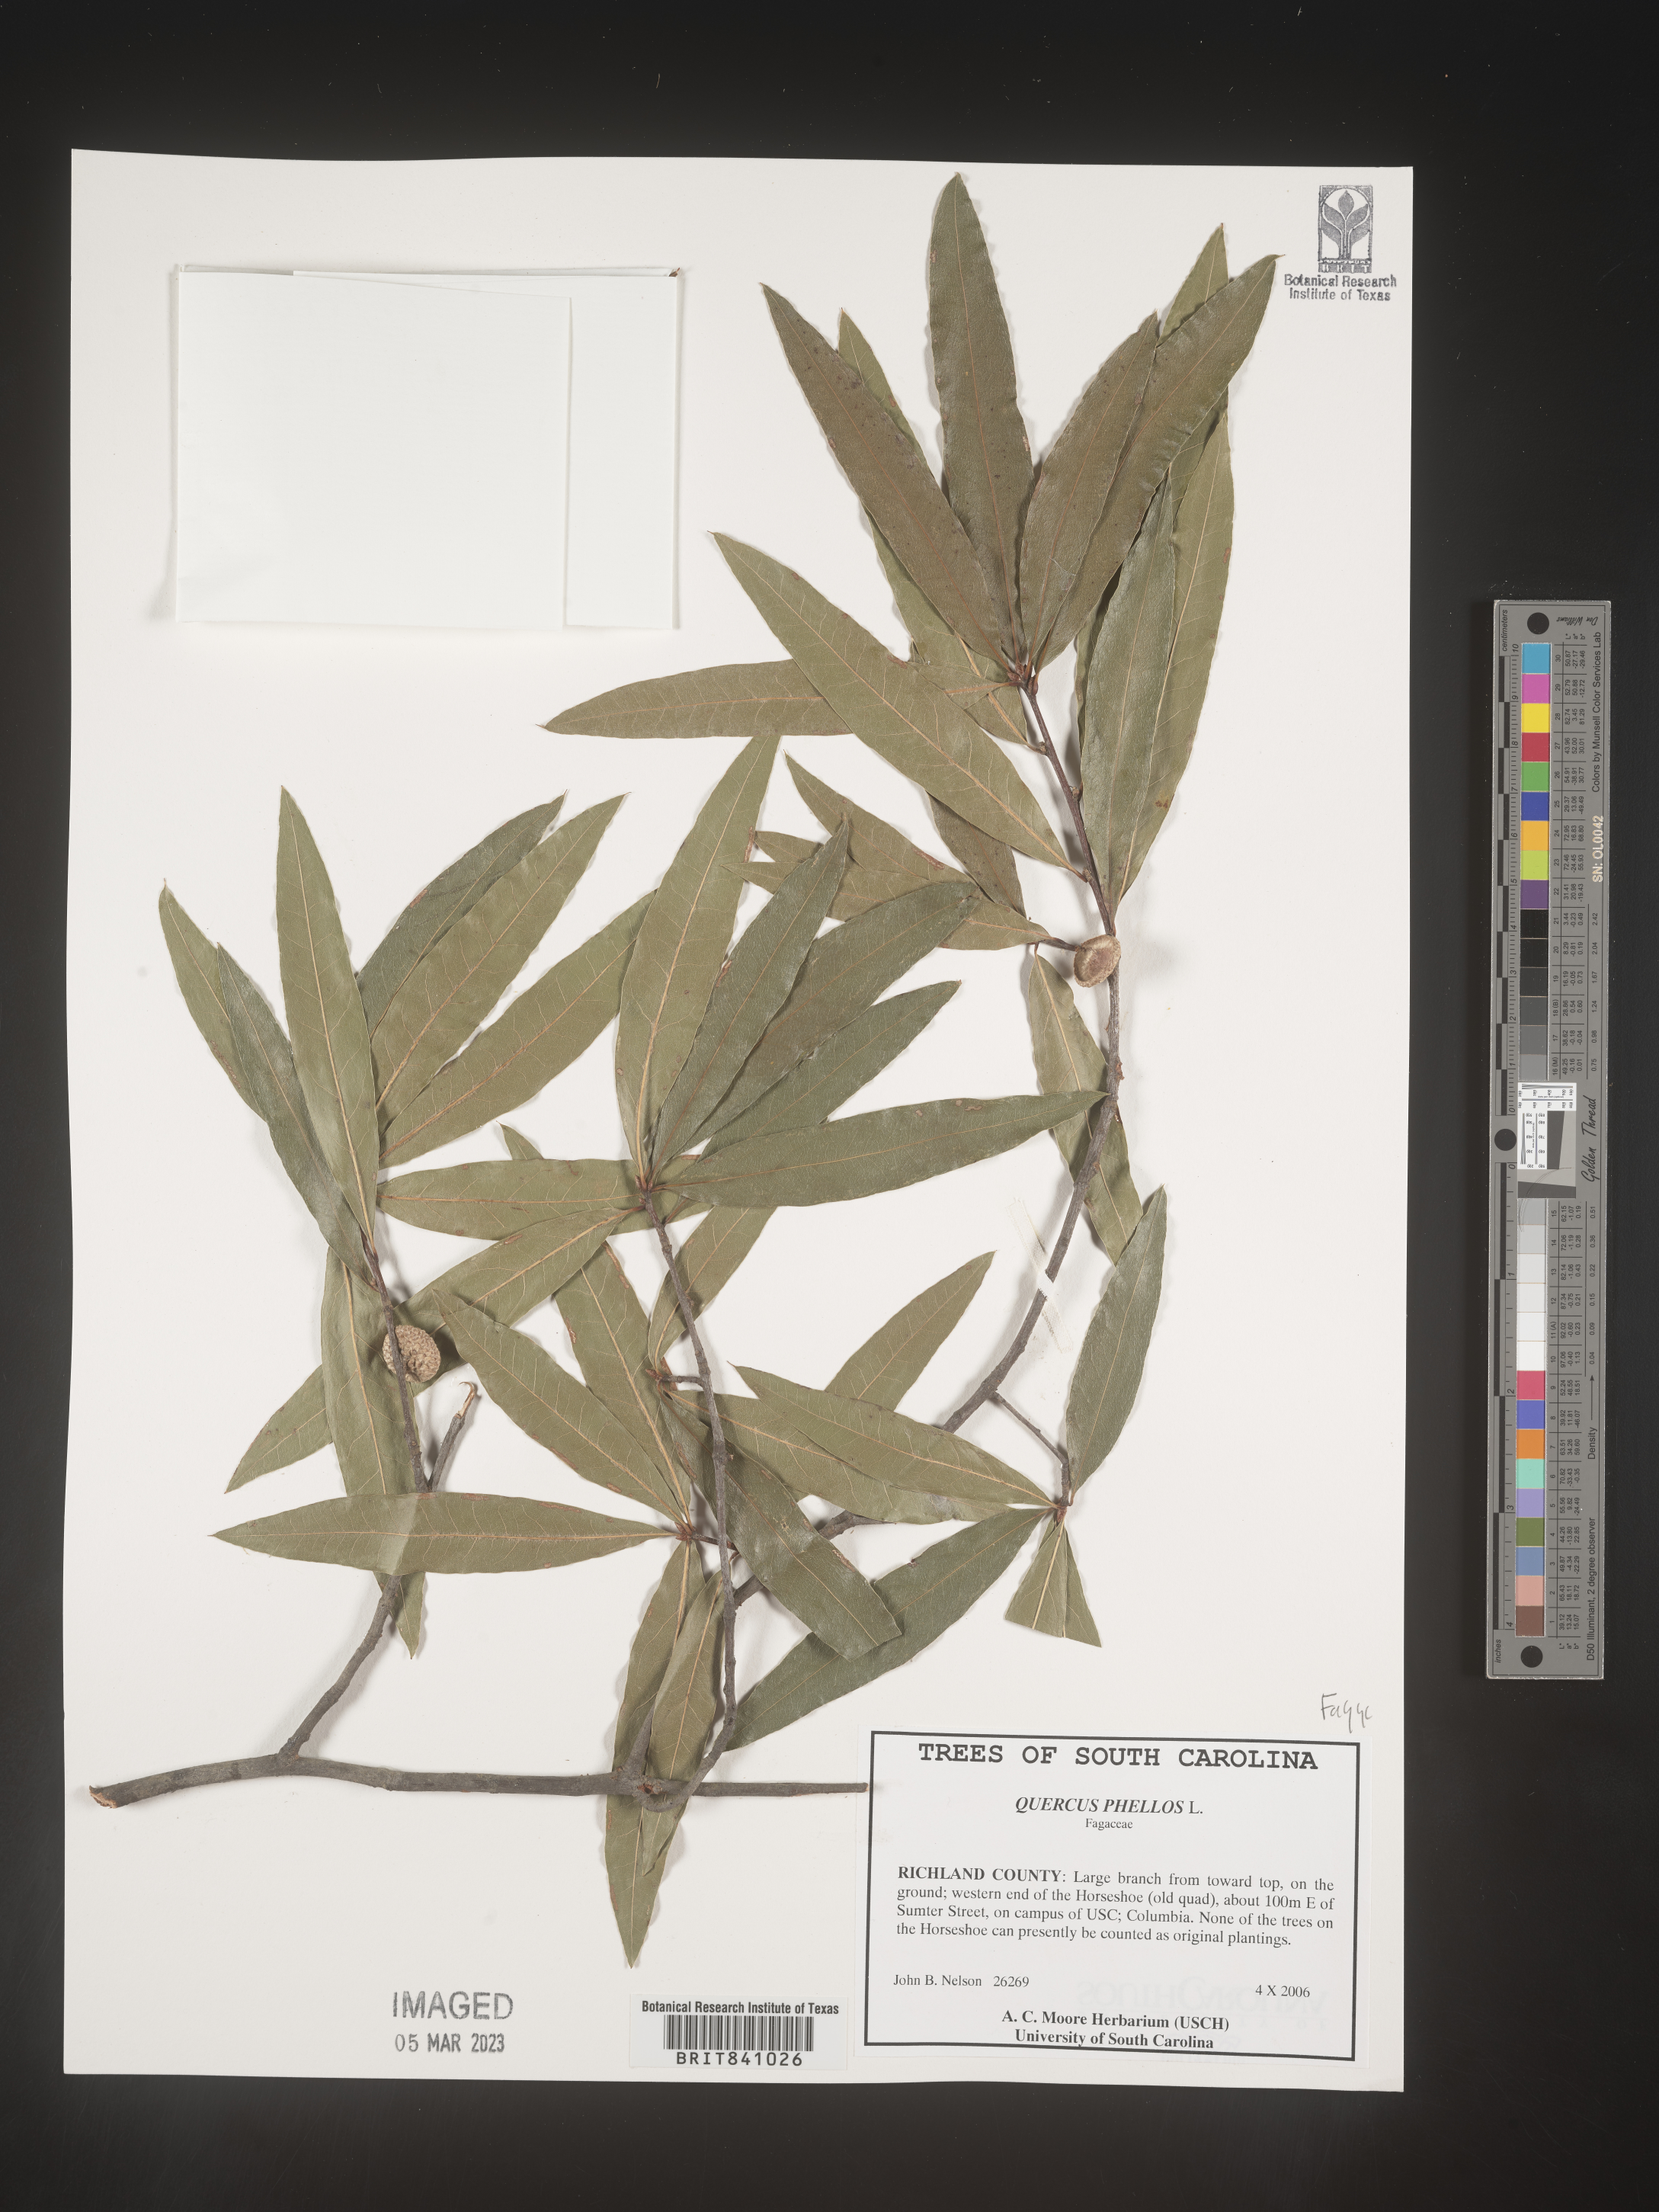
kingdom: Plantae
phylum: Tracheophyta
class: Magnoliopsida
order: Fagales
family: Fagaceae
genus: Quercus
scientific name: Quercus phellos
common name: Willow oak
